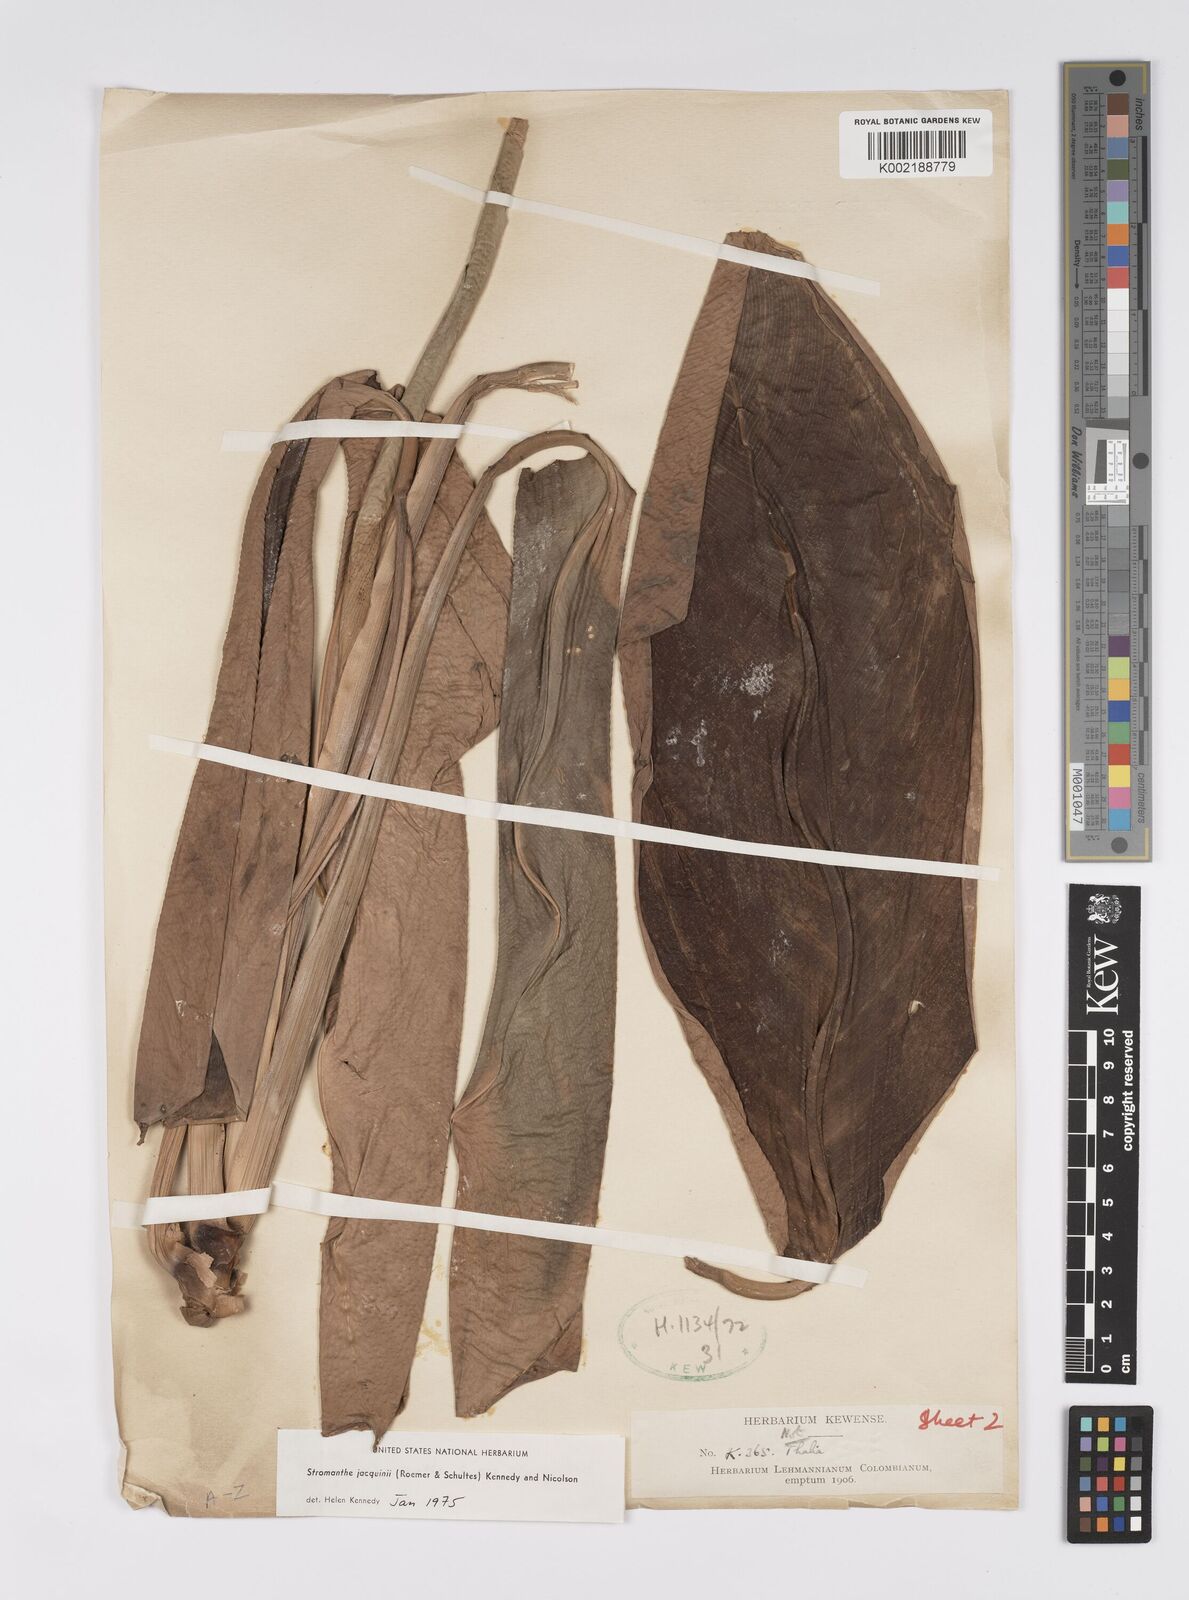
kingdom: Plantae
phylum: Tracheophyta
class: Liliopsida
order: Zingiberales
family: Marantaceae
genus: Stromanthe
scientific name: Stromanthe jacquinii
